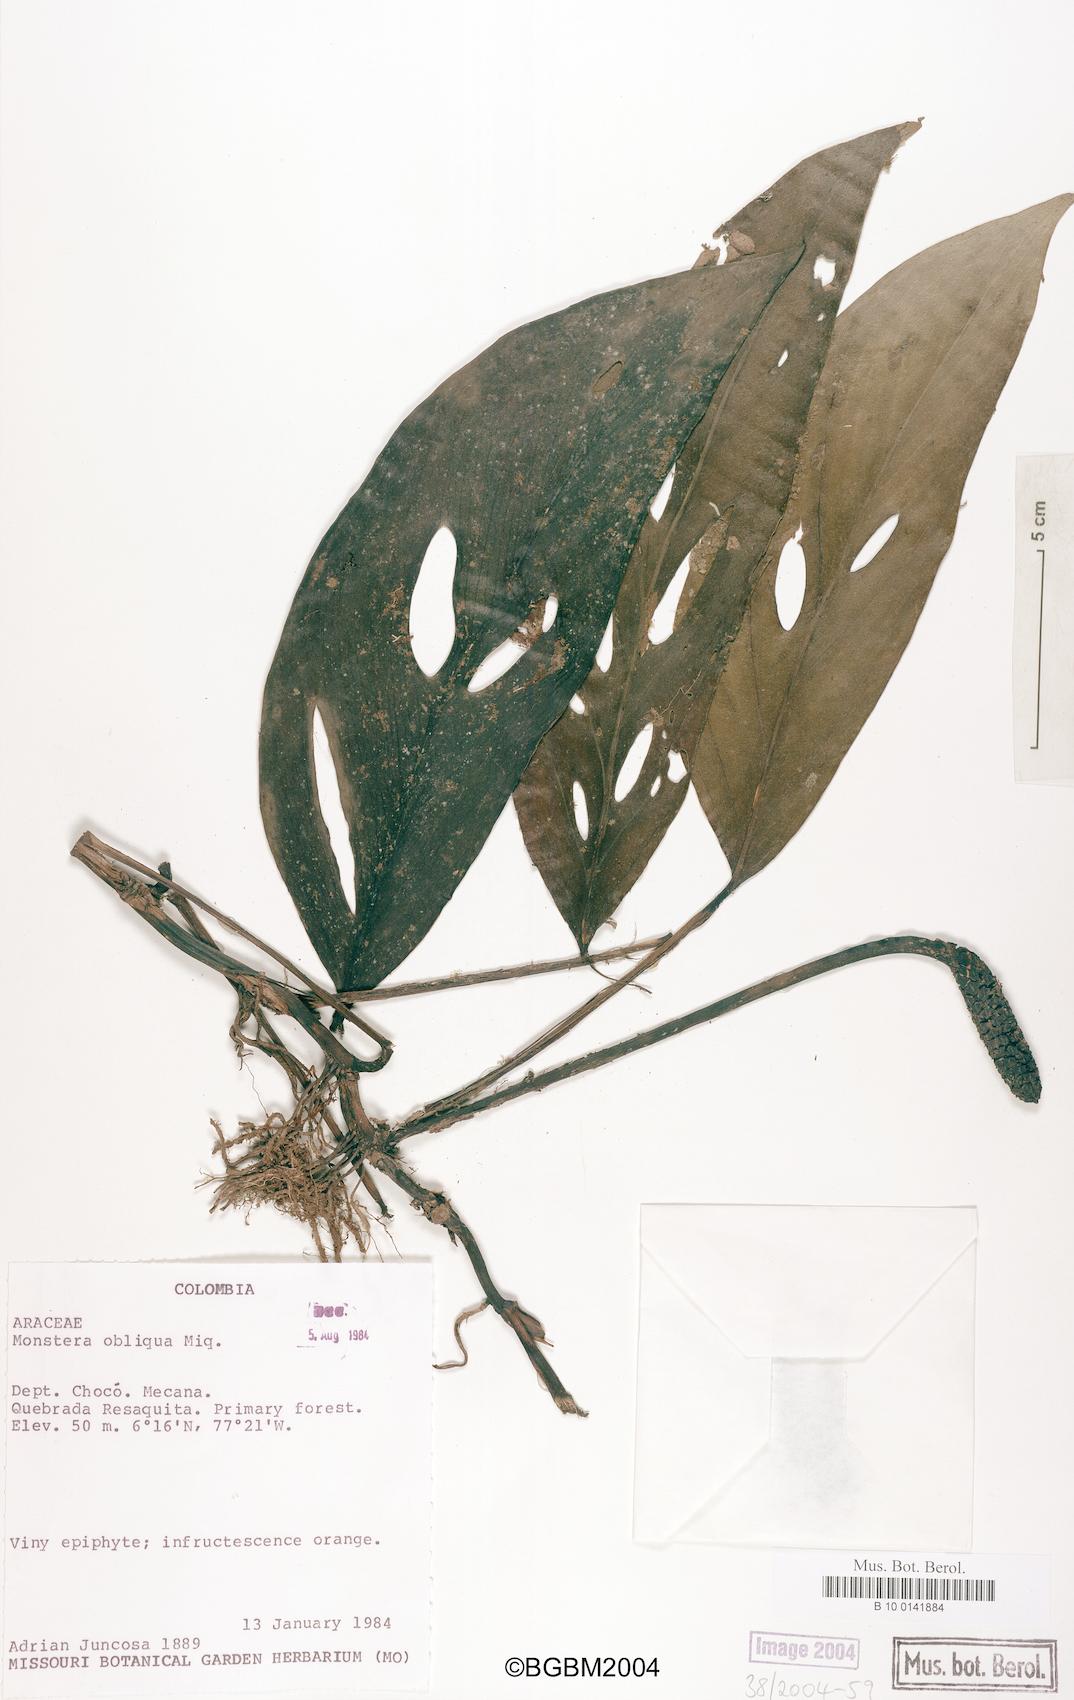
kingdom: Plantae
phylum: Tracheophyta
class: Liliopsida
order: Alismatales
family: Araceae
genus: Monstera
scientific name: Monstera obliqua
